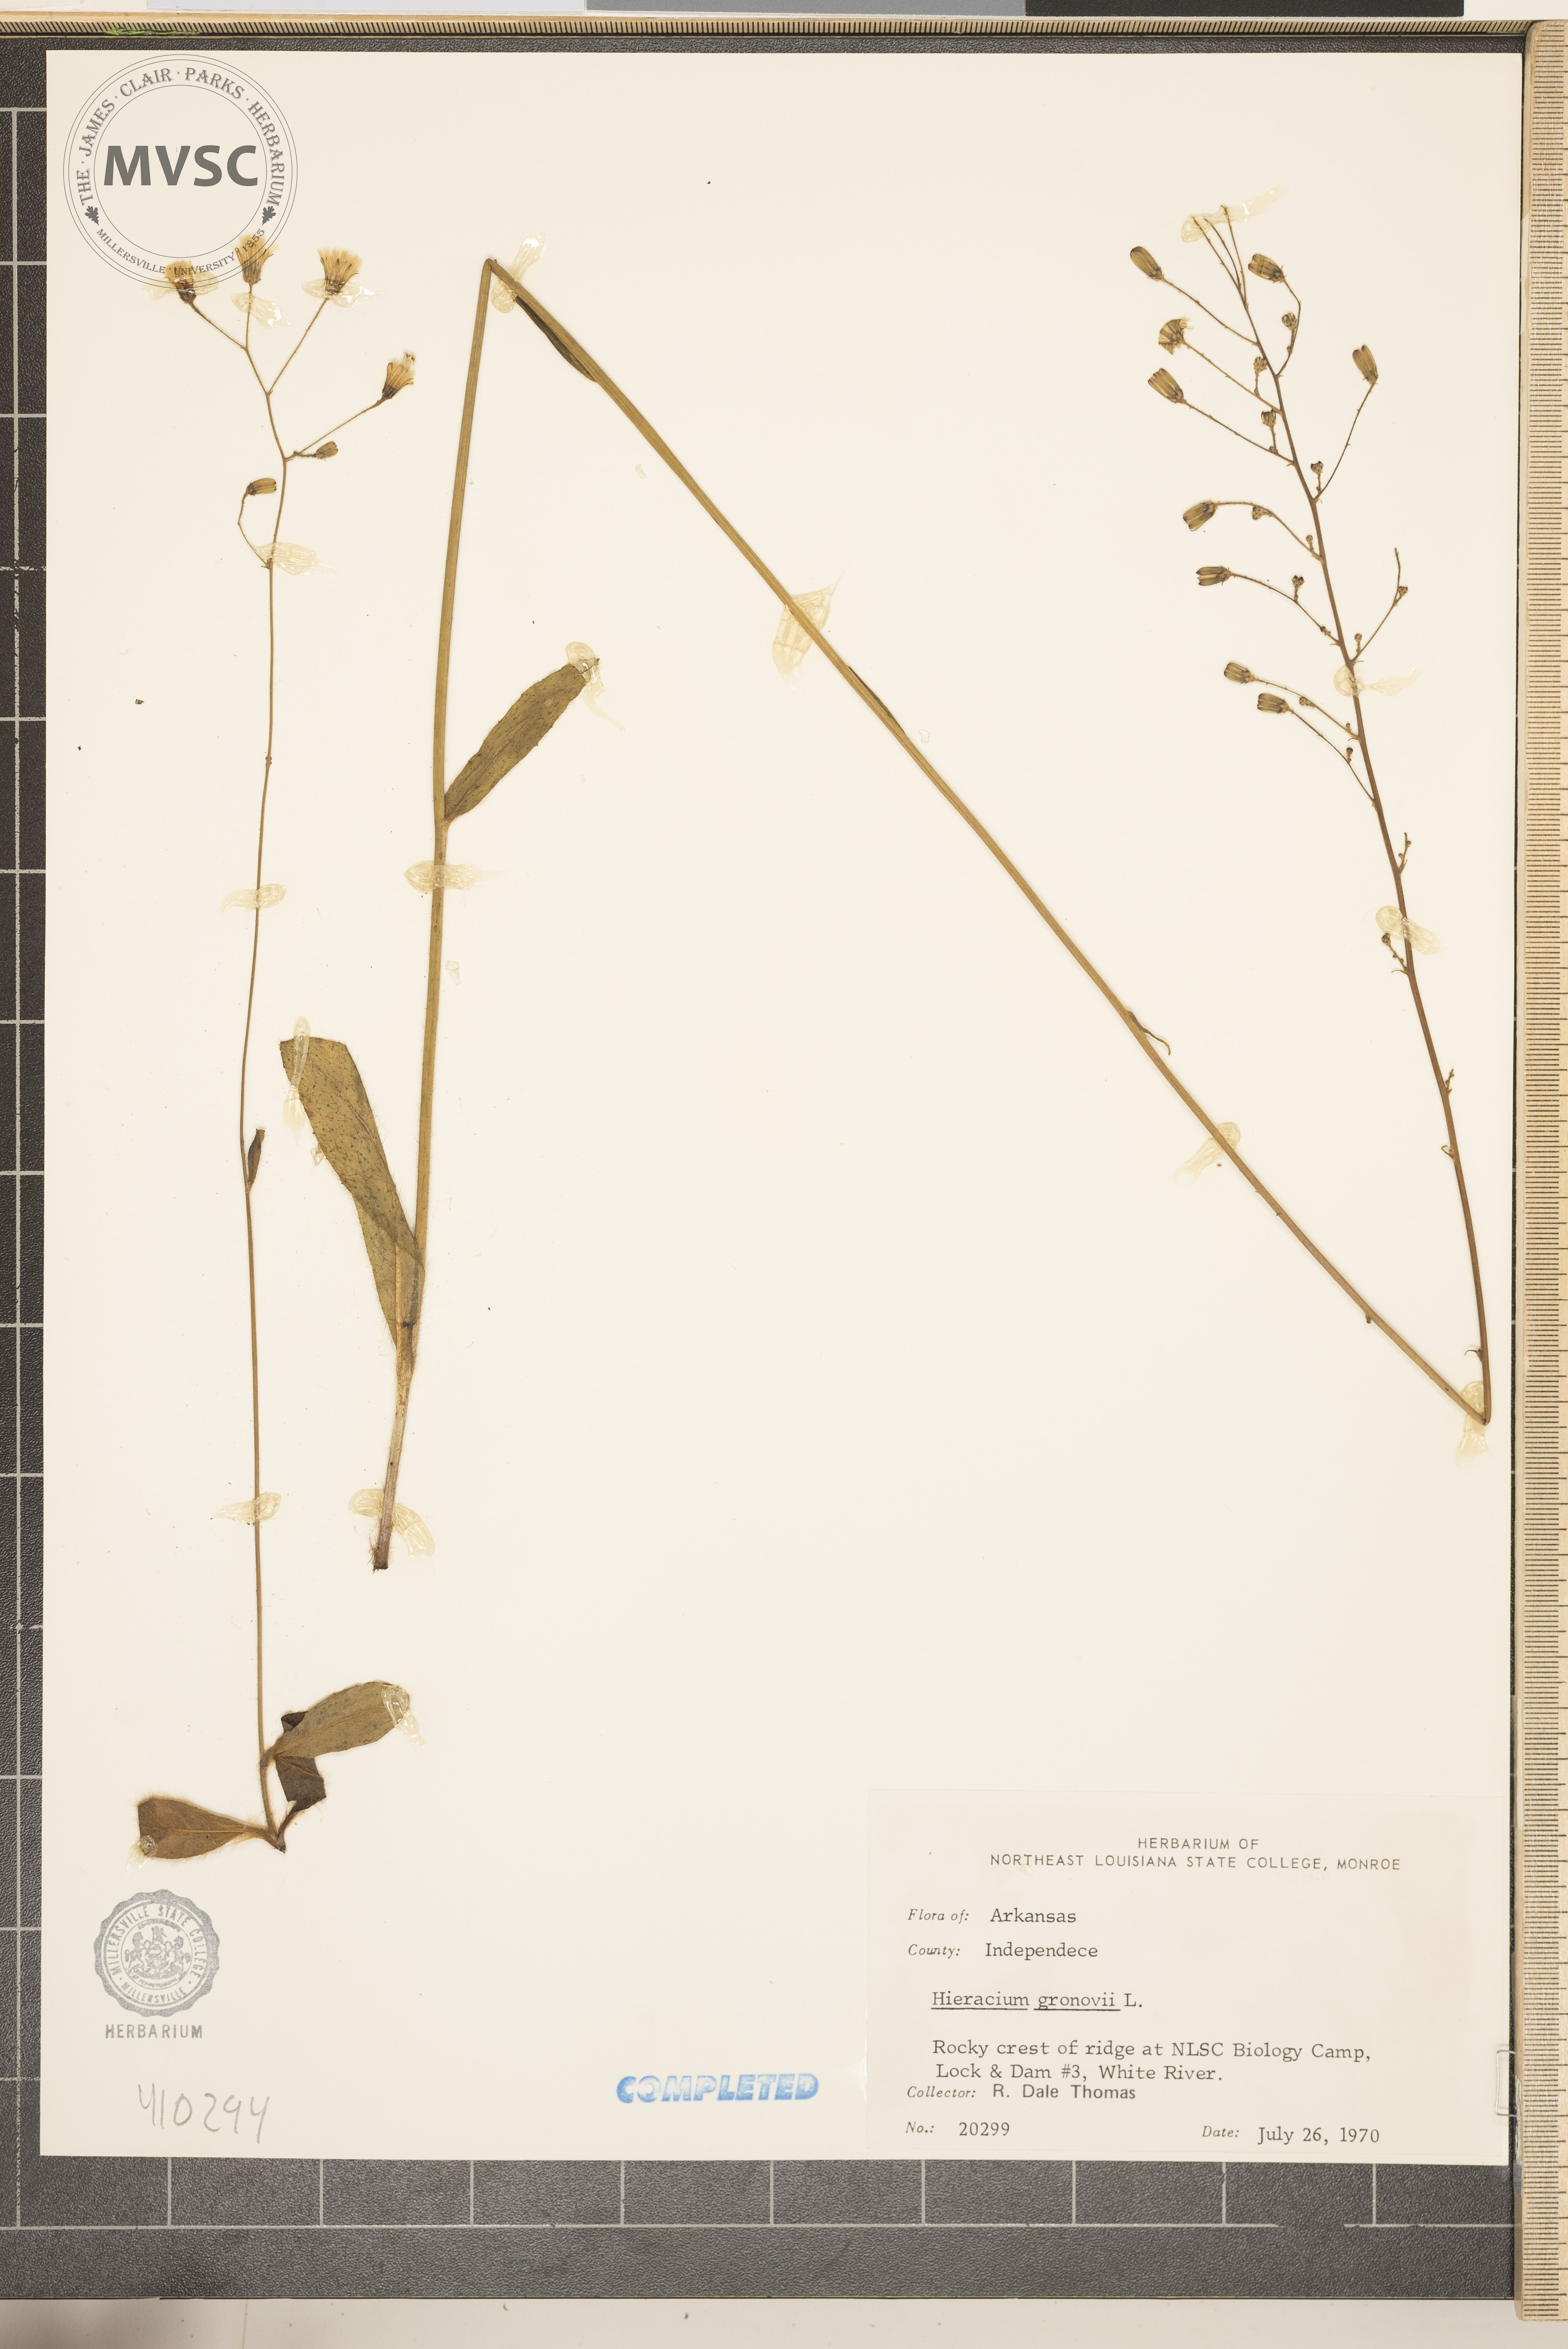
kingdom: Plantae
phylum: Tracheophyta
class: Magnoliopsida
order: Asterales
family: Asteraceae
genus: Hieracium
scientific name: Hieracium gronovii
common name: Beaked hawkweed
